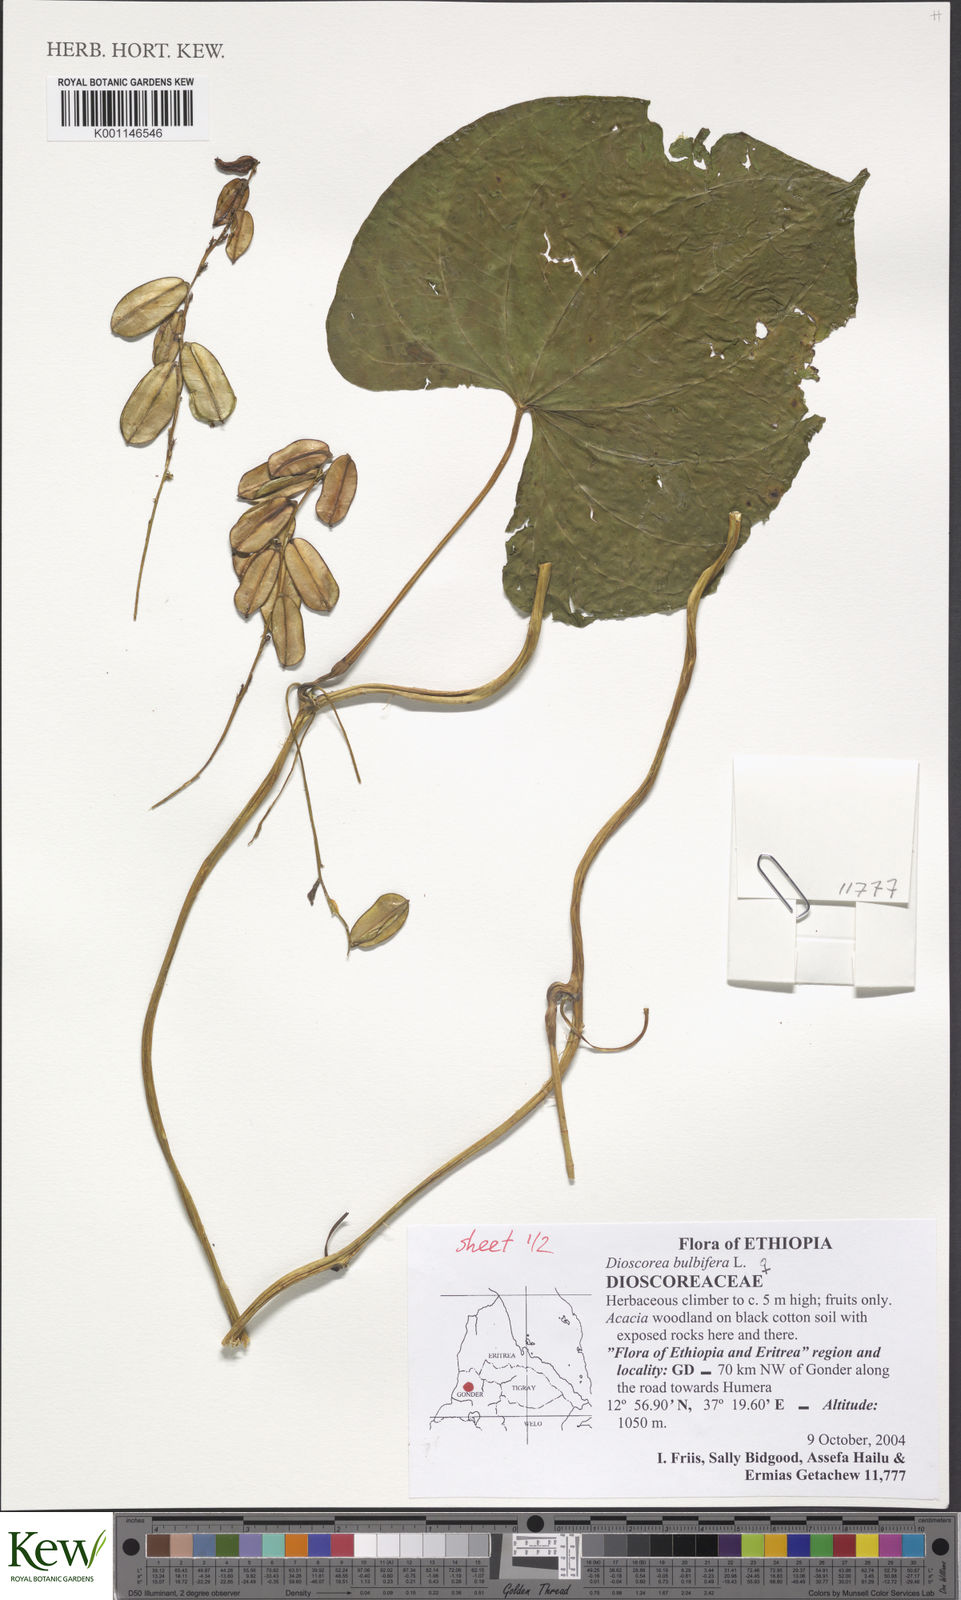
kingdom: Plantae
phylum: Tracheophyta
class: Liliopsida
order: Dioscoreales
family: Dioscoreaceae
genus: Dioscorea
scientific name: Dioscorea bulbifera
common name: Air yam
